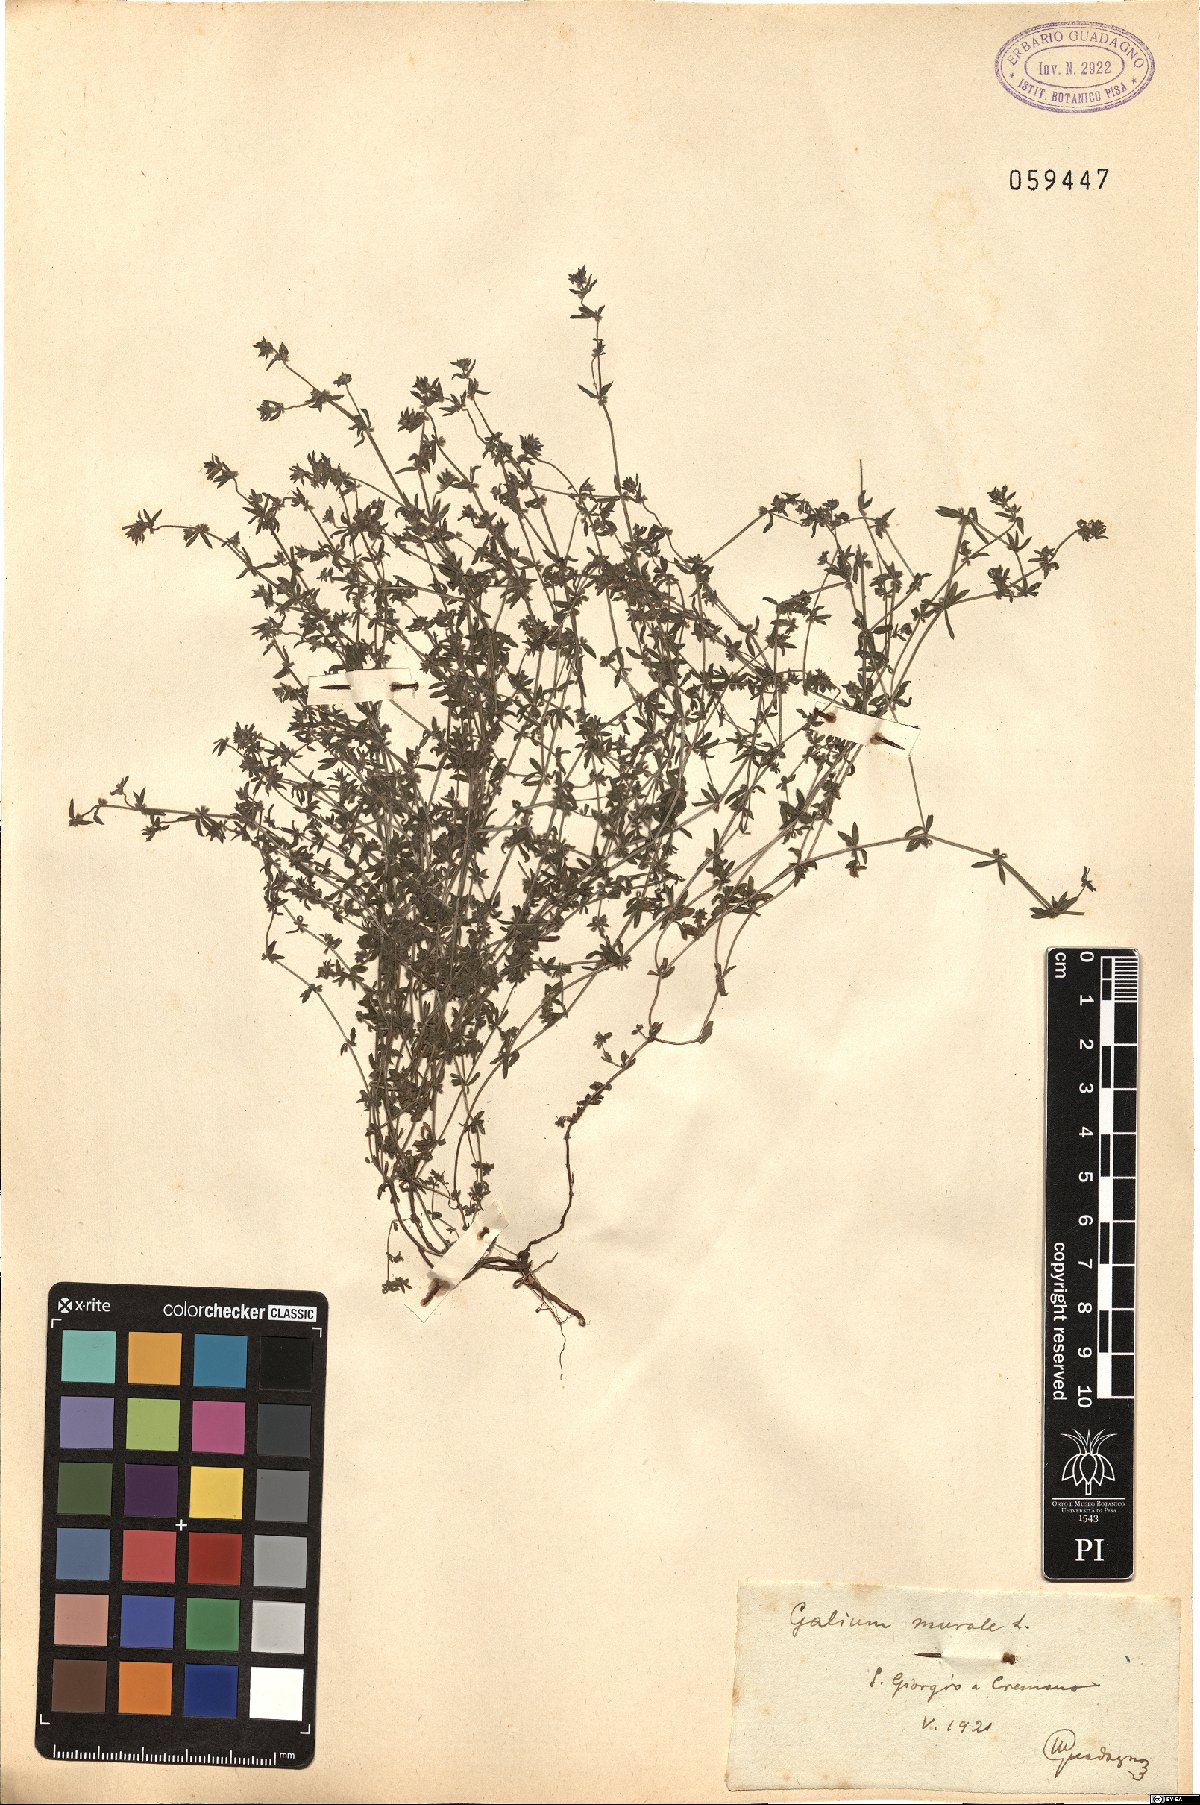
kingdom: Plantae
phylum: Tracheophyta
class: Magnoliopsida
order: Gentianales
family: Rubiaceae
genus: Galium
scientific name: Galium murale
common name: Yellow wall bedstraw
